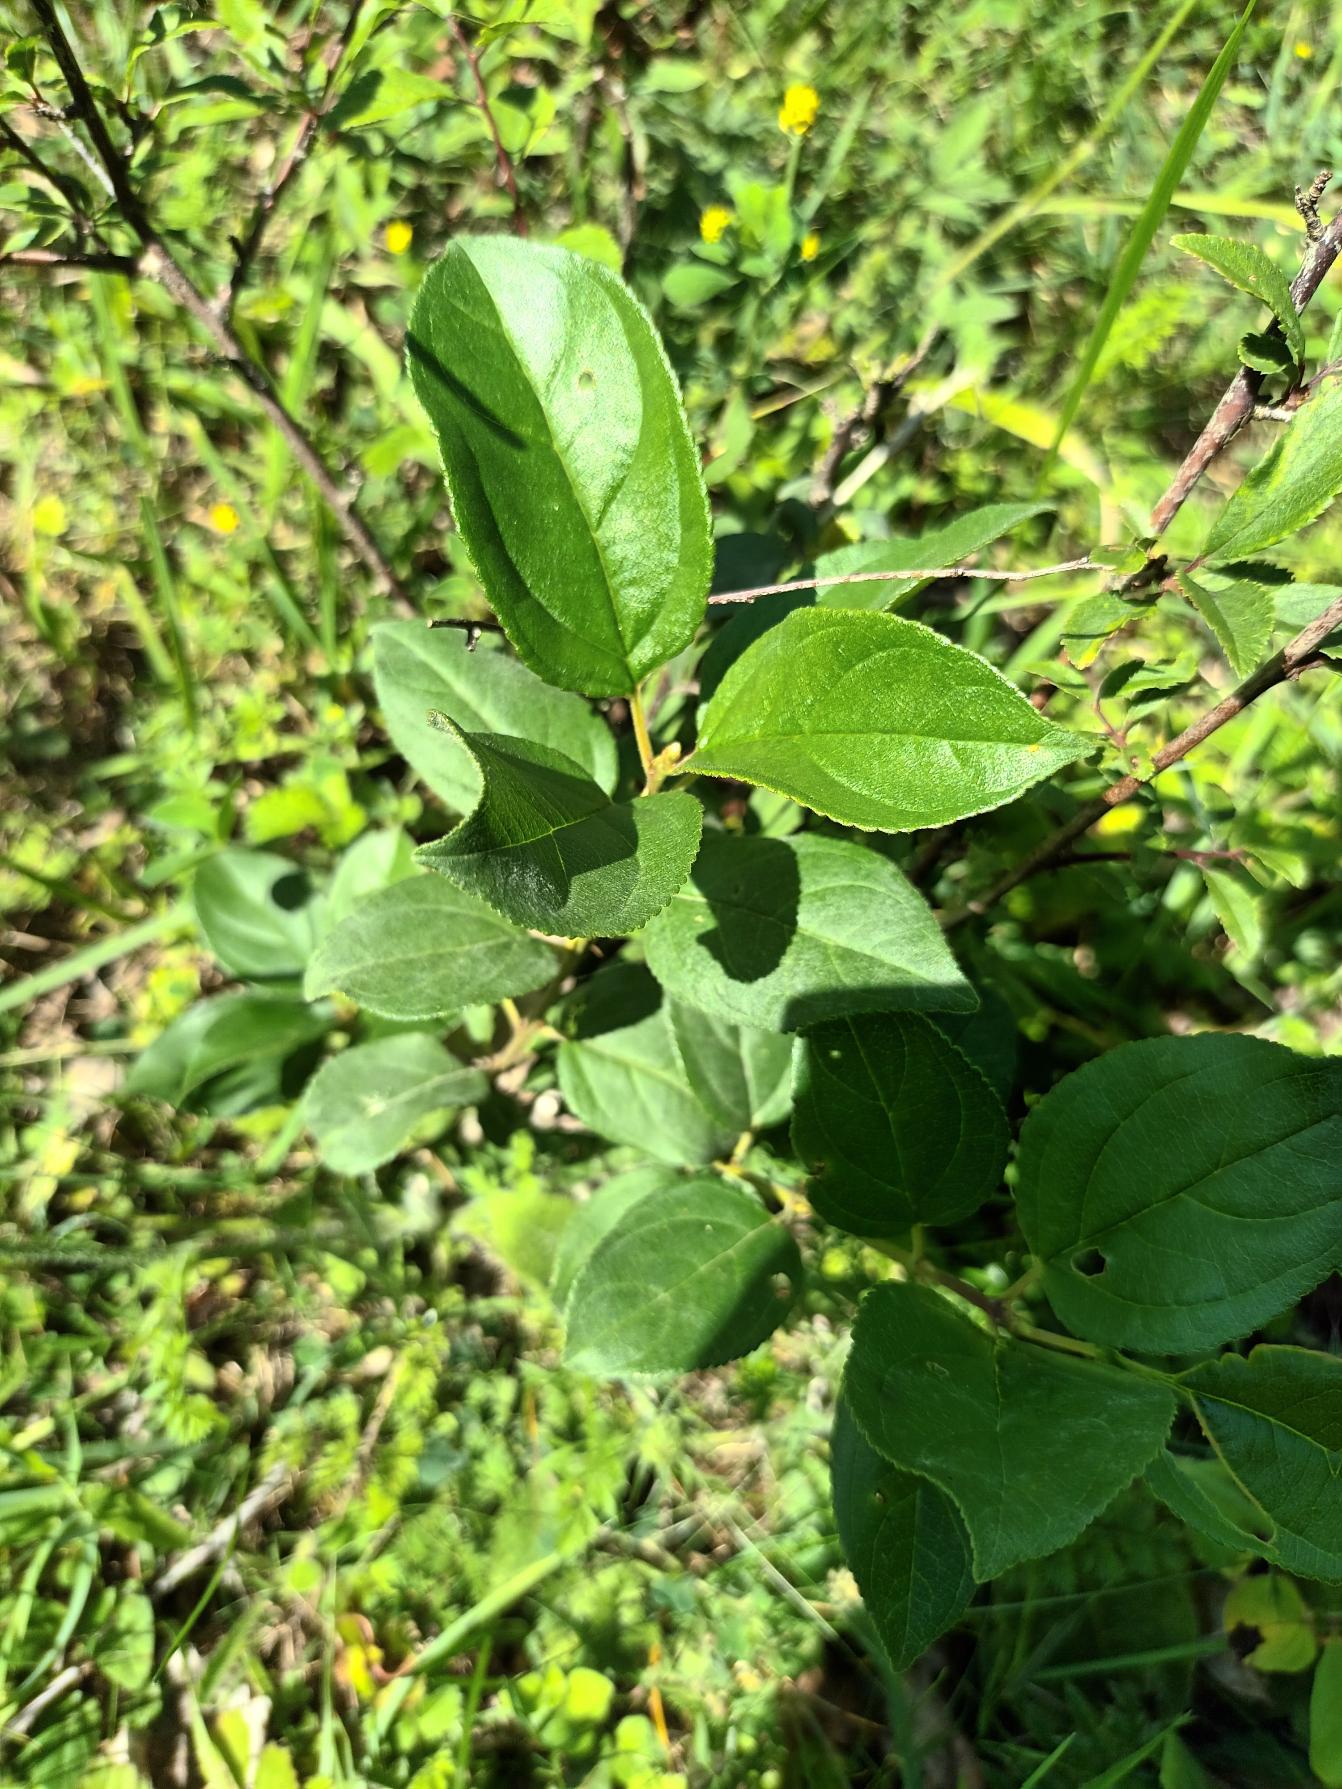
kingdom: Plantae
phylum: Tracheophyta
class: Magnoliopsida
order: Rosales
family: Rhamnaceae
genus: Rhamnus
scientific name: Rhamnus cathartica
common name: Vrietorn
